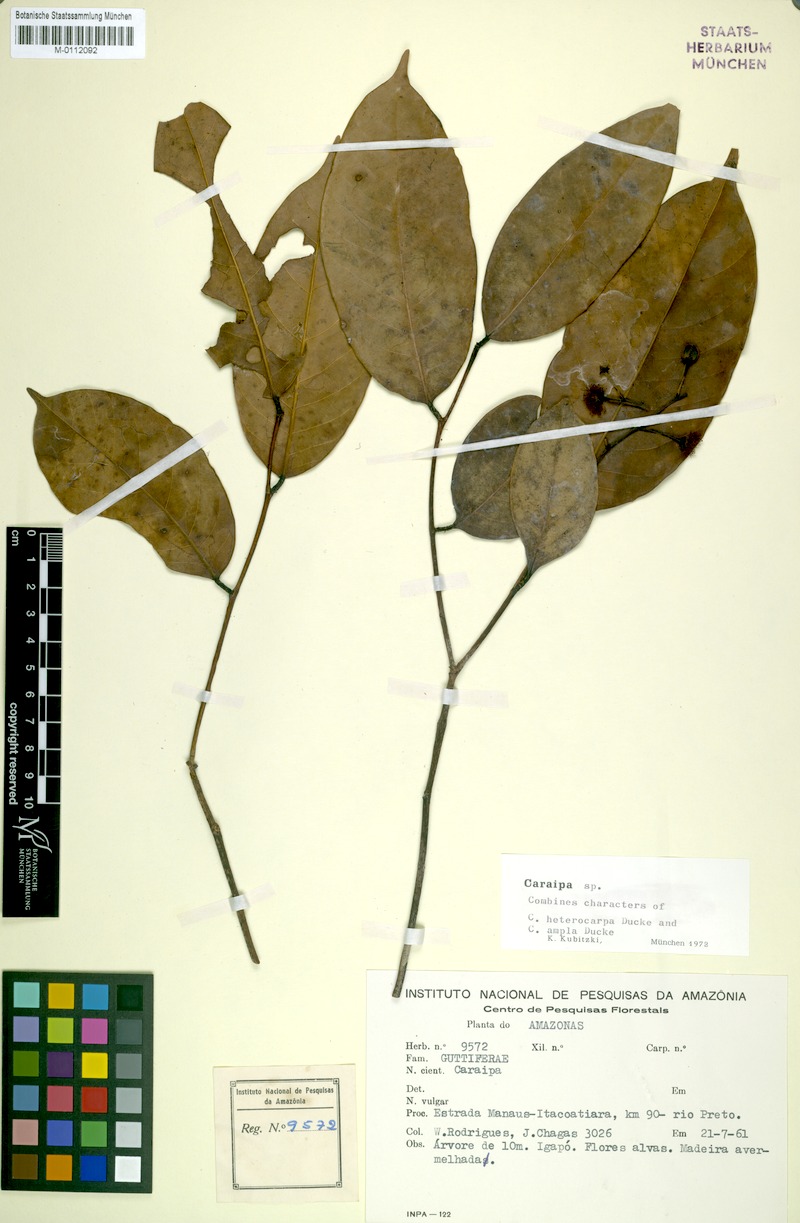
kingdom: Plantae
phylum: Tracheophyta
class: Magnoliopsida
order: Malpighiales
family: Calophyllaceae
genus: Caraipa
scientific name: Caraipa
